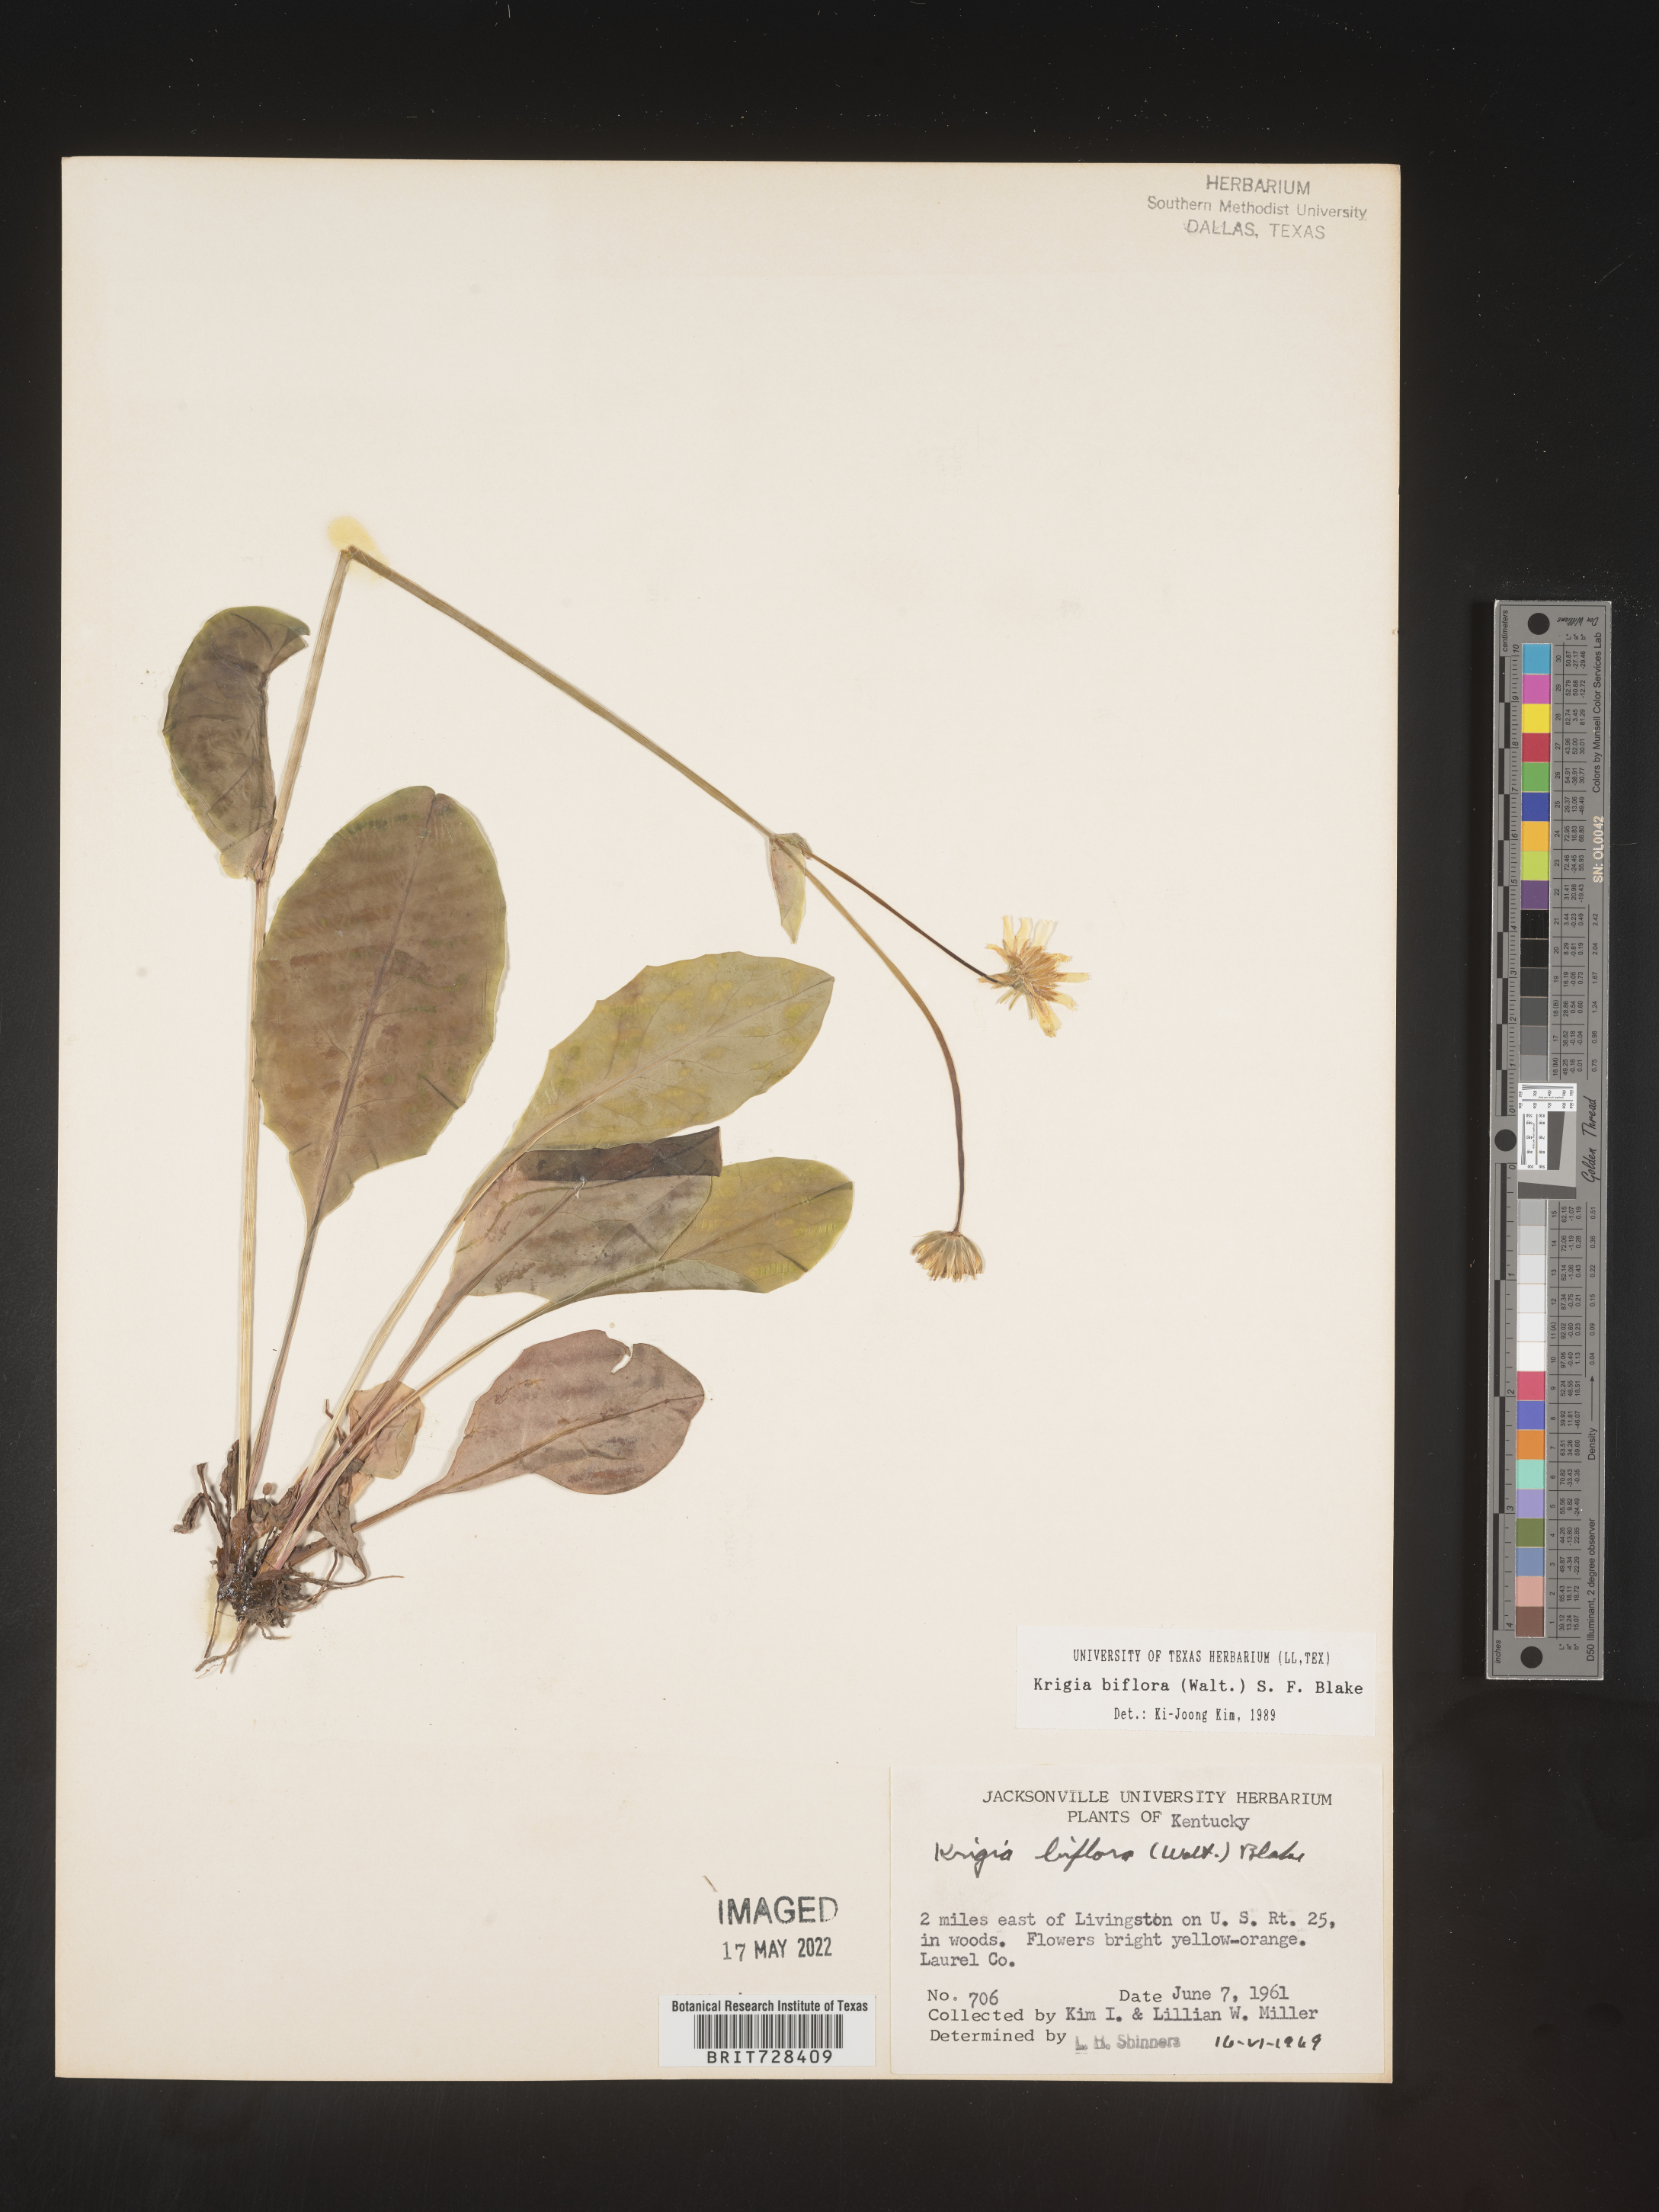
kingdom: Plantae
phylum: Tracheophyta
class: Magnoliopsida
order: Asterales
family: Asteraceae
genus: Krigia
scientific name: Krigia biflora
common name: Orange dwarf-dandelion
